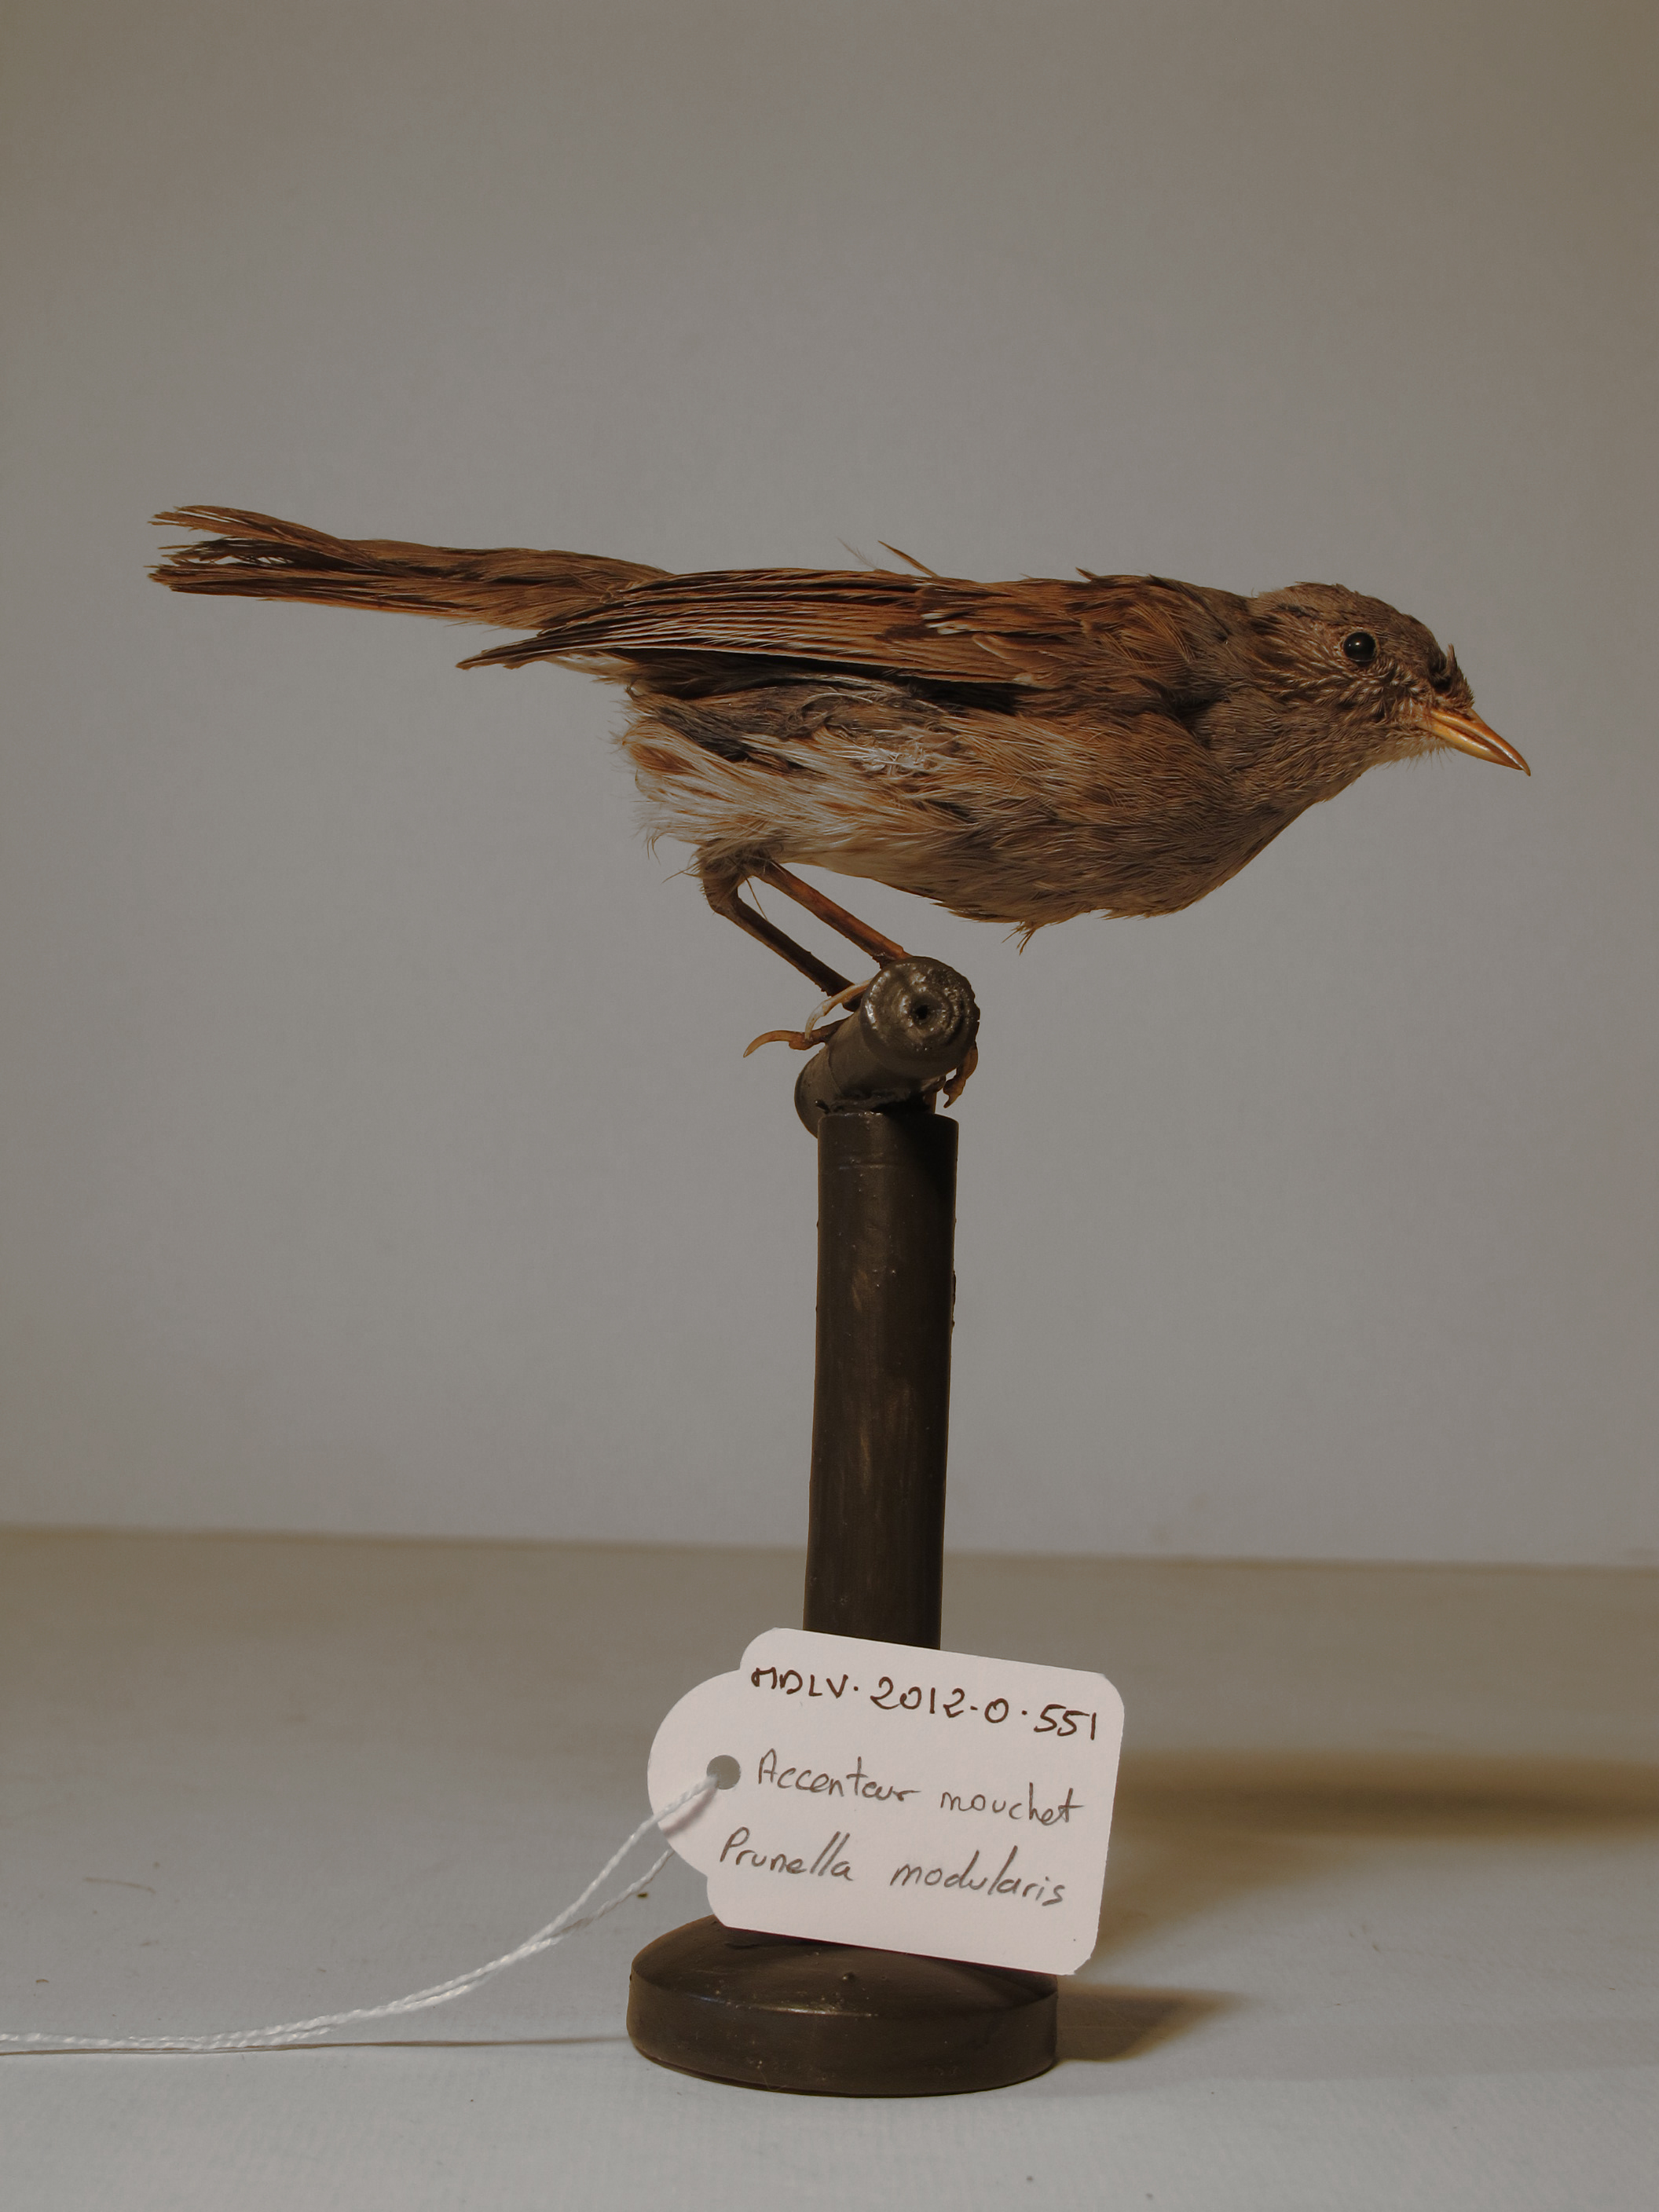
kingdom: Animalia
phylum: Chordata
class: Aves
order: Passeriformes
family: Prunellidae
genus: Prunella
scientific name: Prunella modularis
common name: Dunnock
